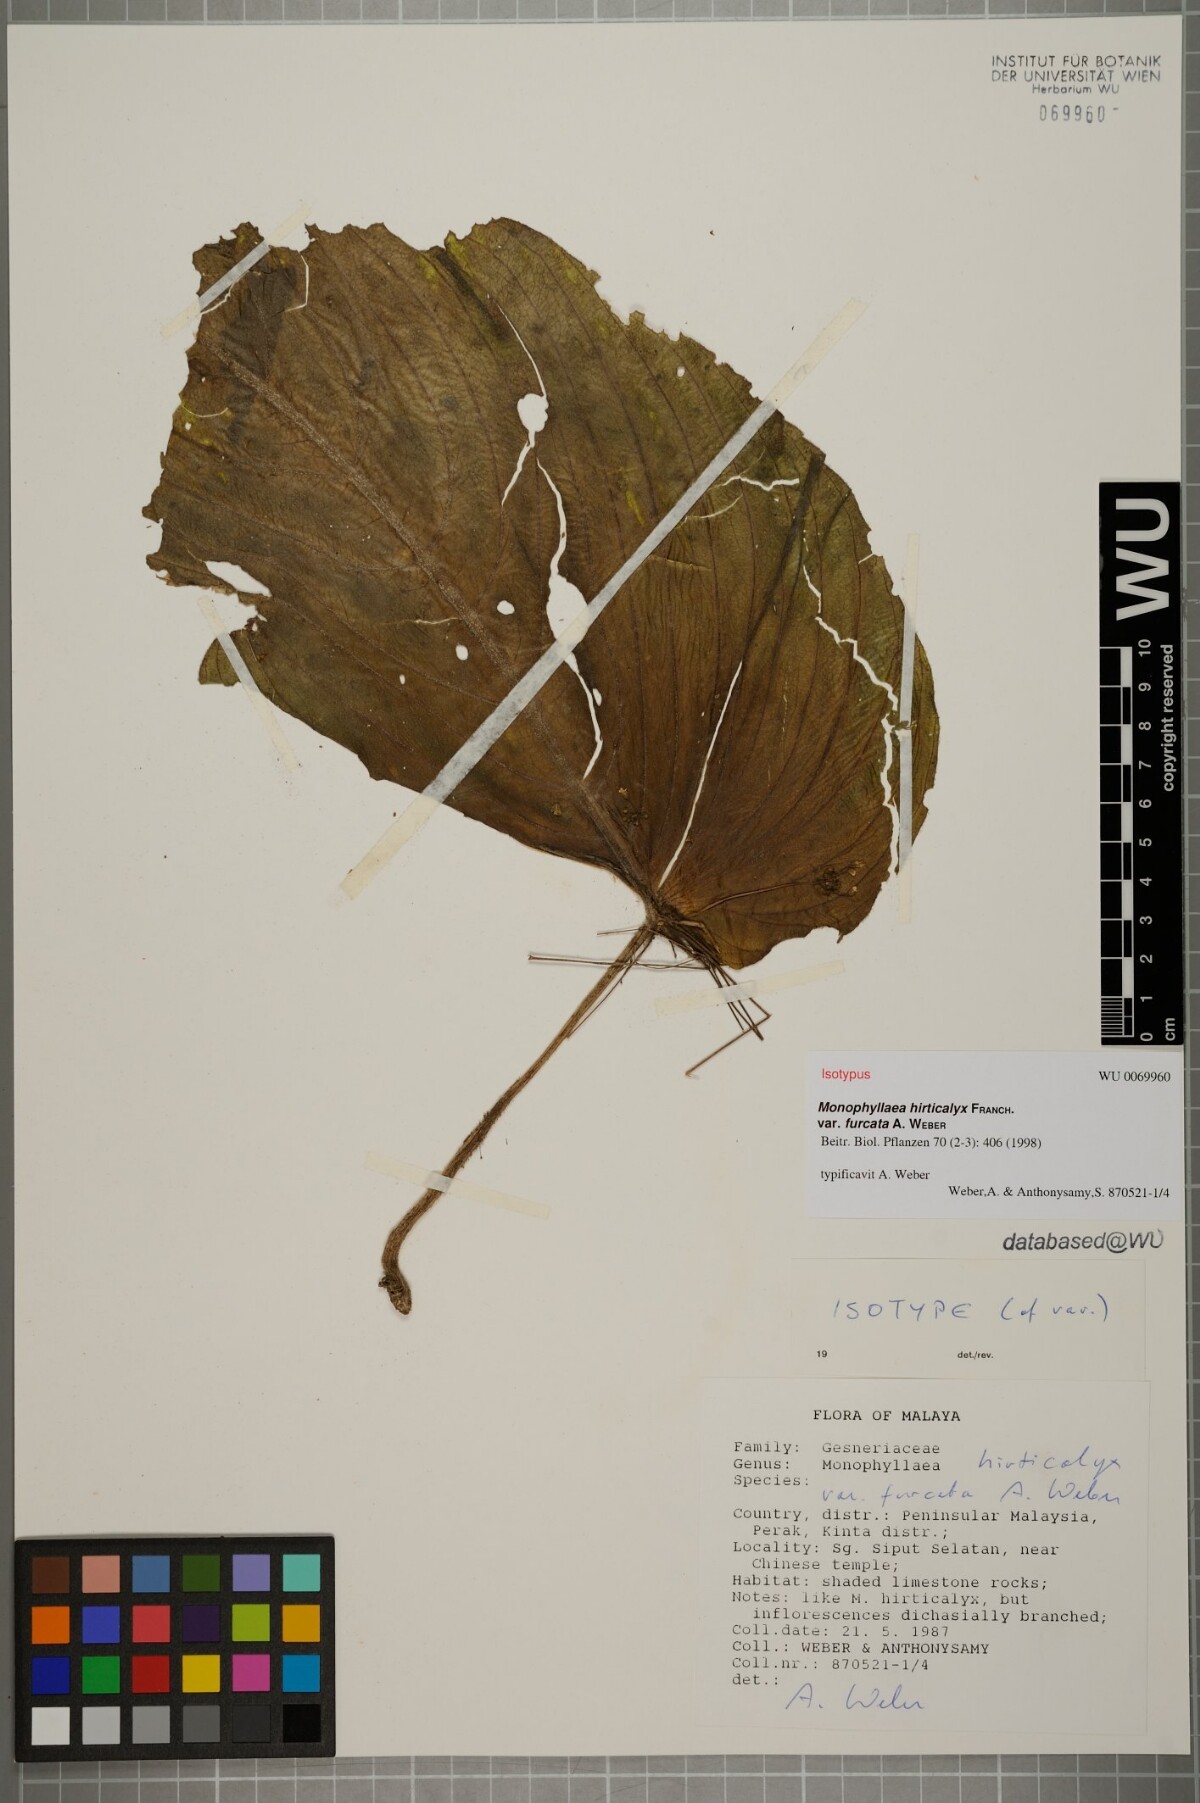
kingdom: Plantae
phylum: Tracheophyta
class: Magnoliopsida
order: Lamiales
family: Gesneriaceae
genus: Monophyllaea
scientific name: Monophyllaea hirticalyx
